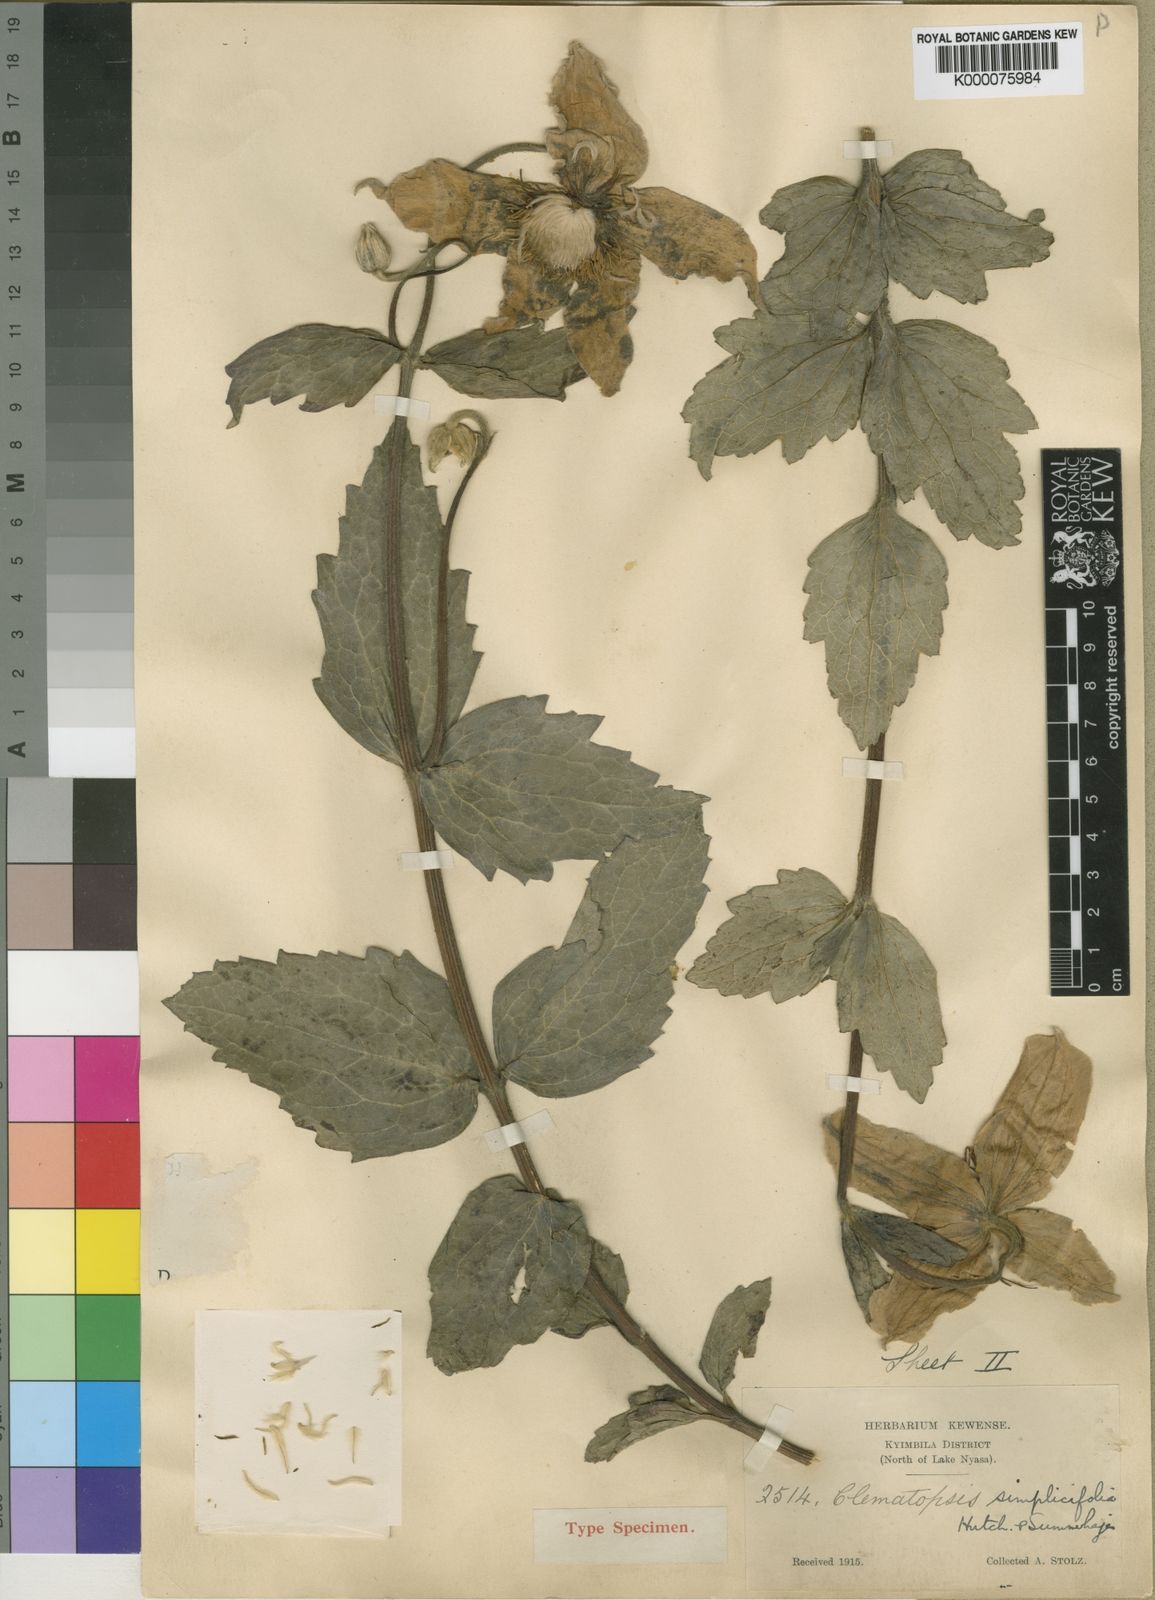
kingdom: Plantae
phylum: Tracheophyta
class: Magnoliopsida
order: Ranunculales
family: Ranunculaceae
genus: Clematis
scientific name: Clematis uhehensis
